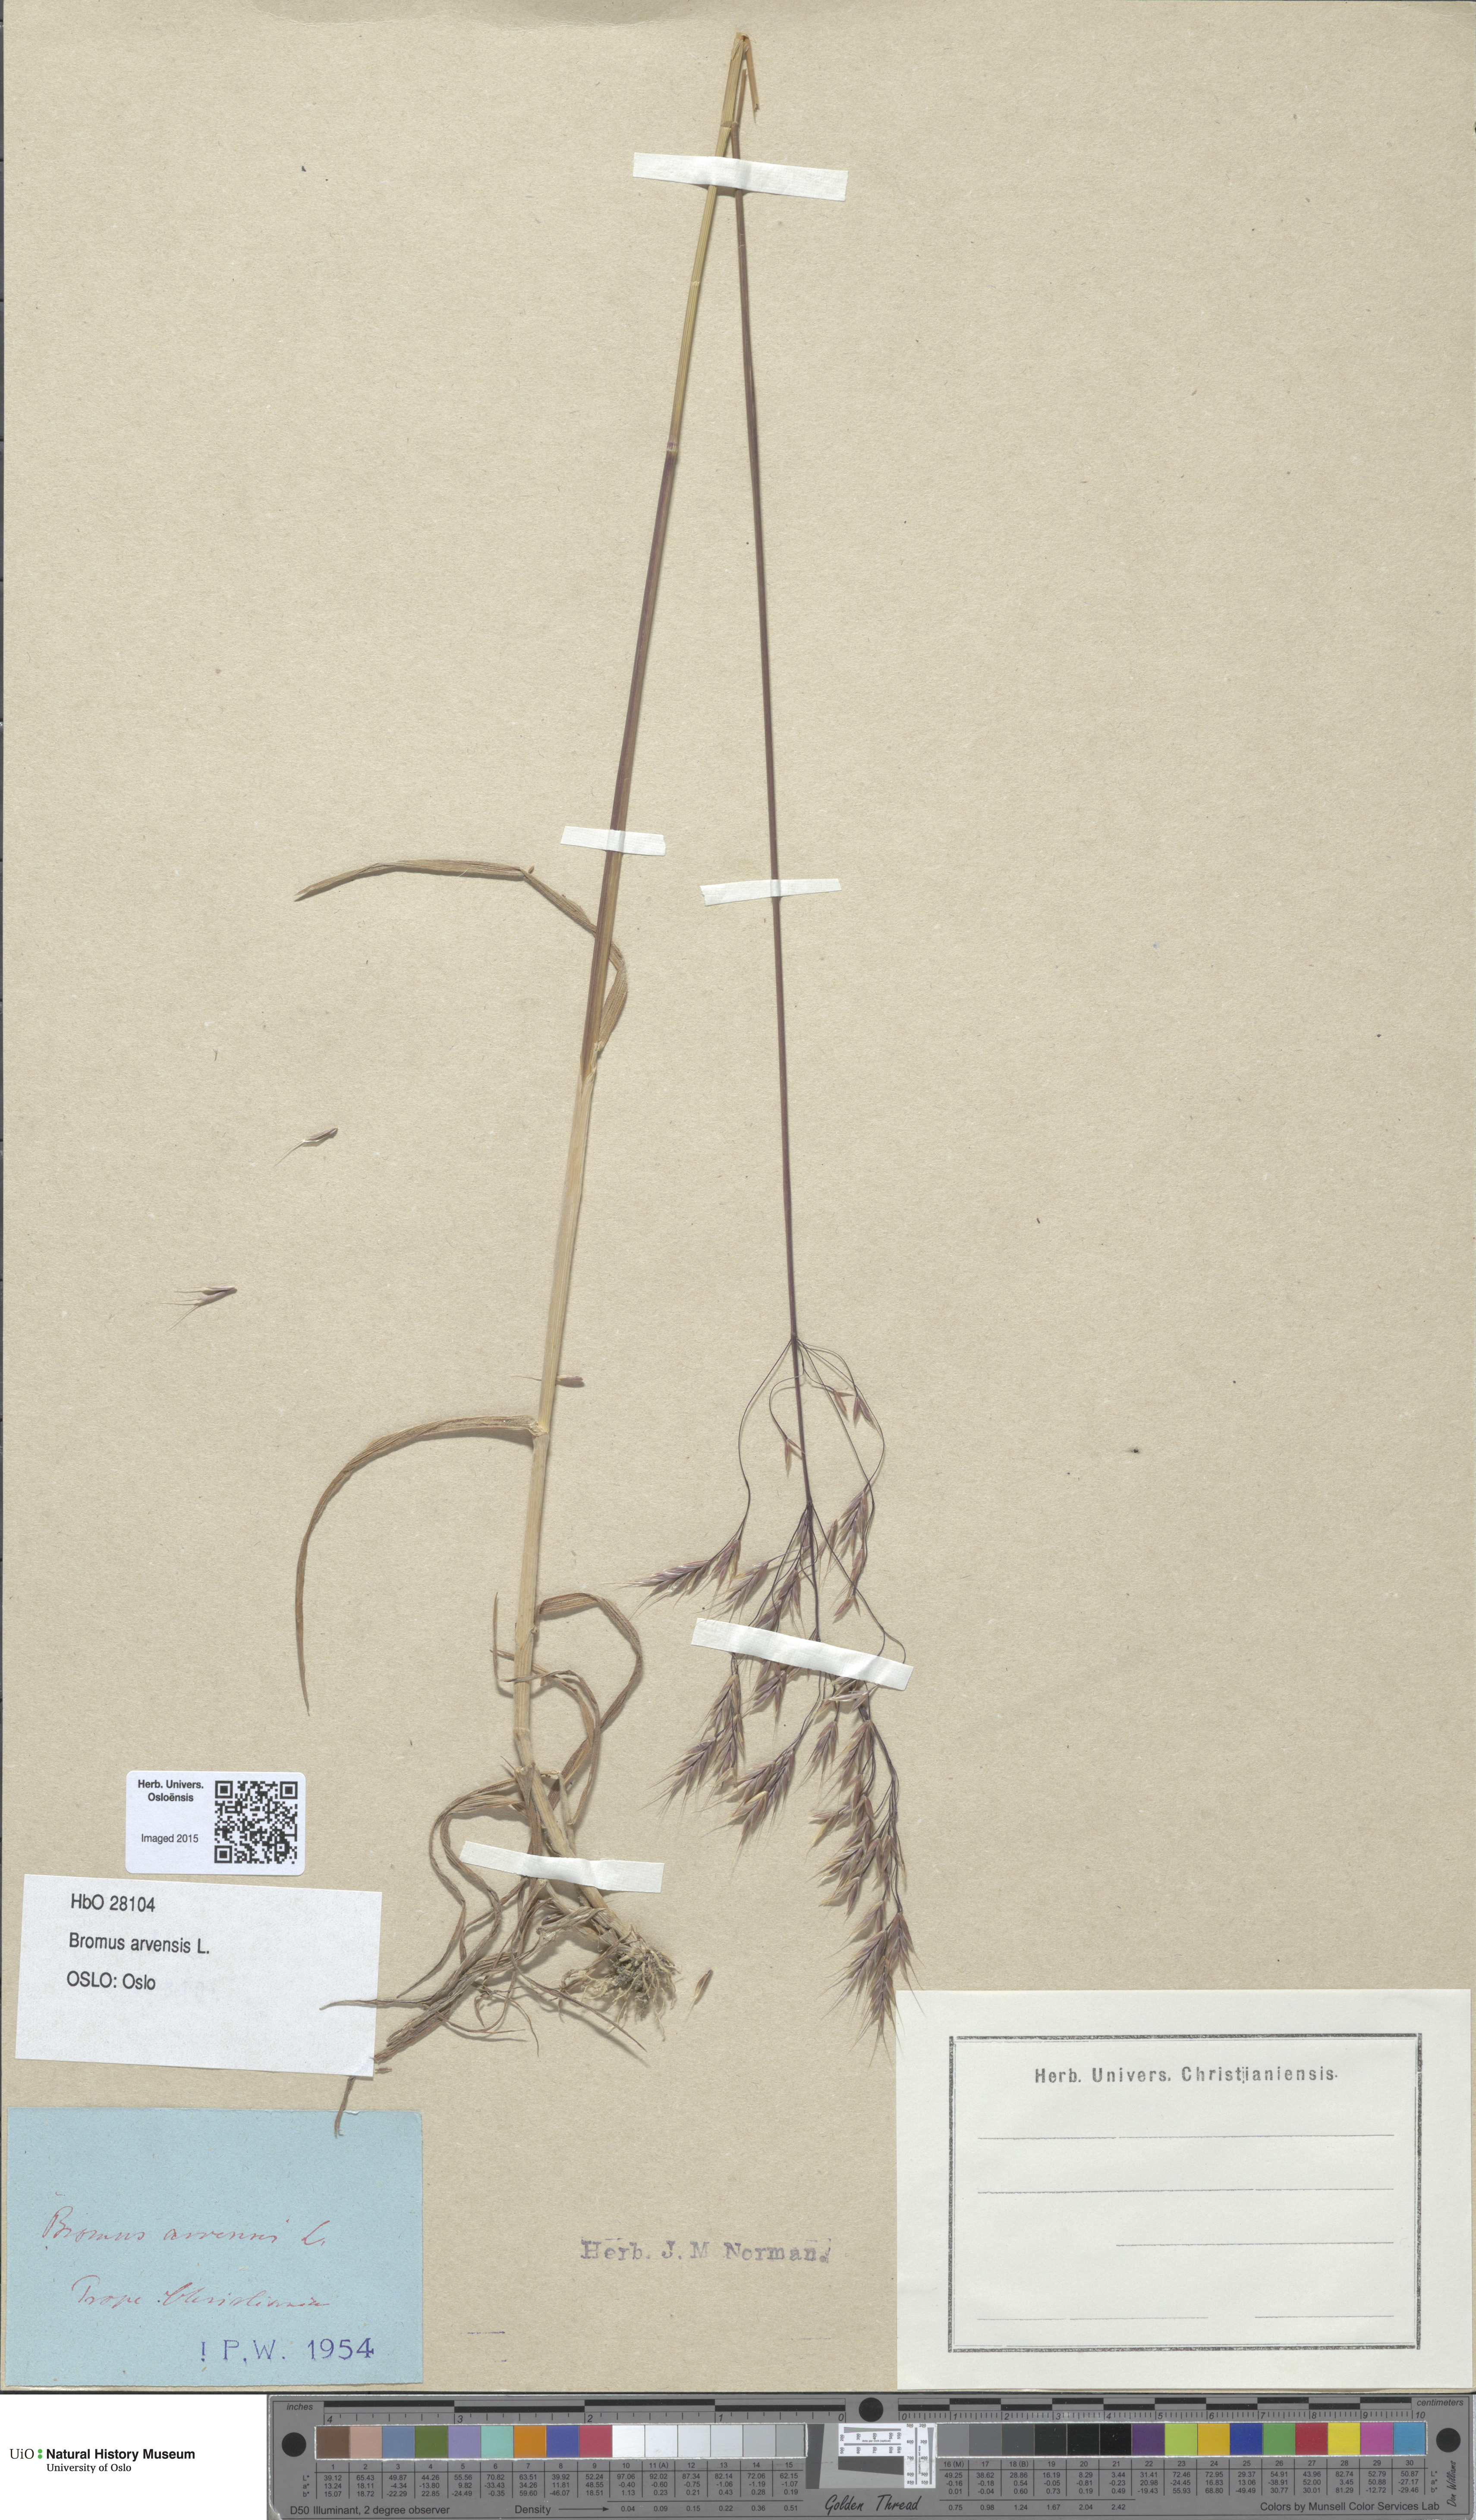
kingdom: Plantae
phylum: Tracheophyta
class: Liliopsida
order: Poales
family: Poaceae
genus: Bromus
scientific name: Bromus arvensis
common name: Field brome
